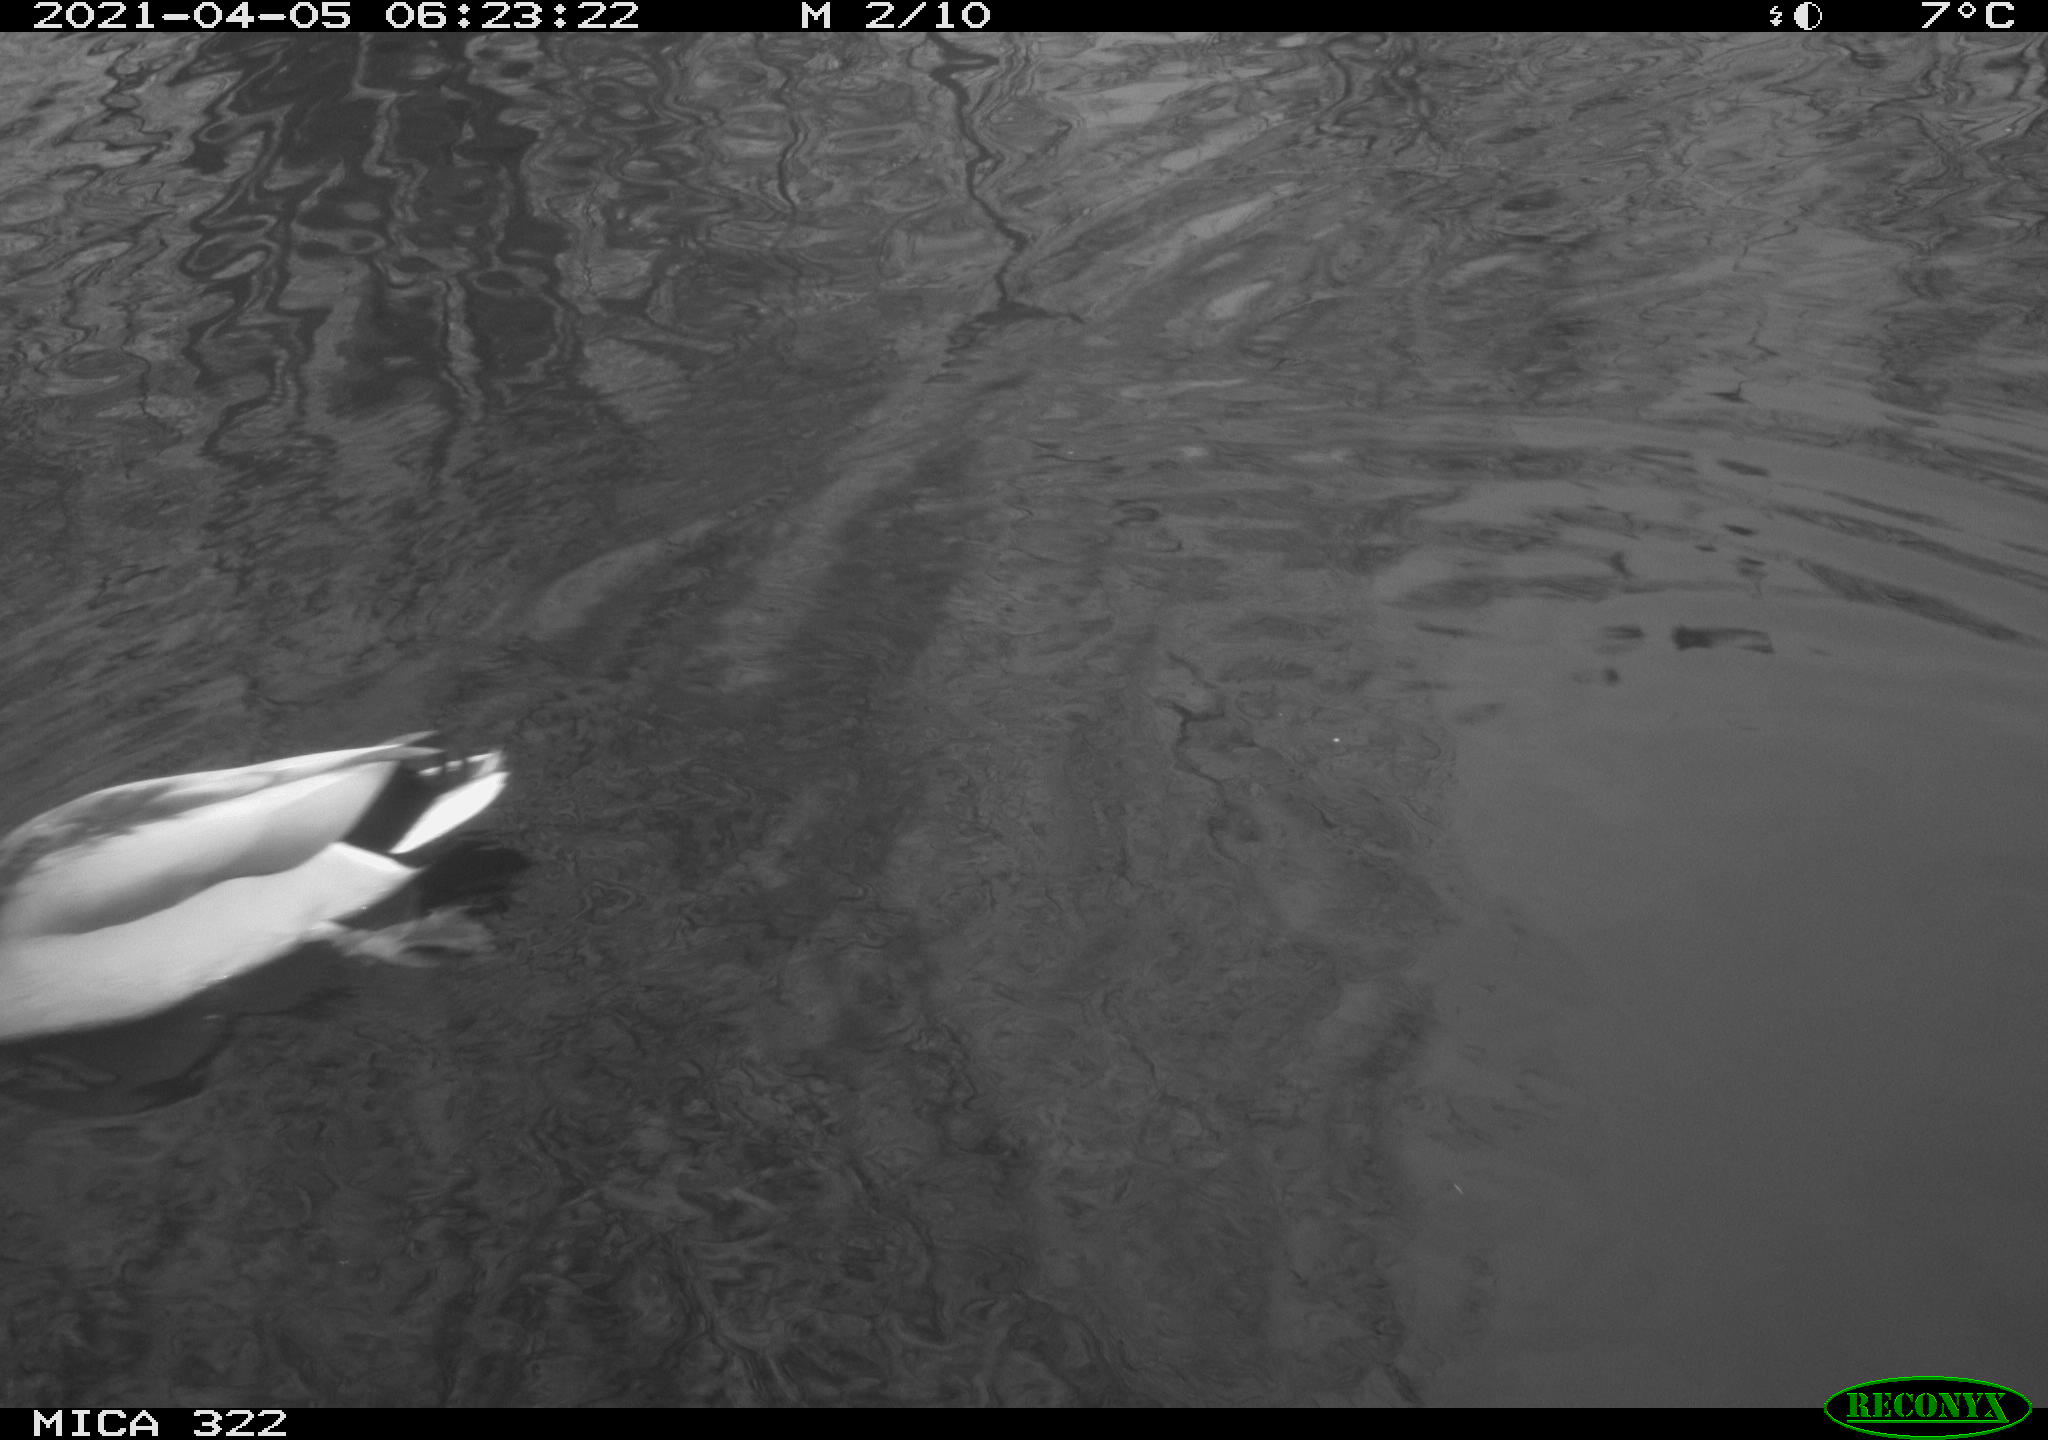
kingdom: Animalia
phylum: Chordata
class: Aves
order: Anseriformes
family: Anatidae
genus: Anas
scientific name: Anas platyrhynchos
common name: Mallard
